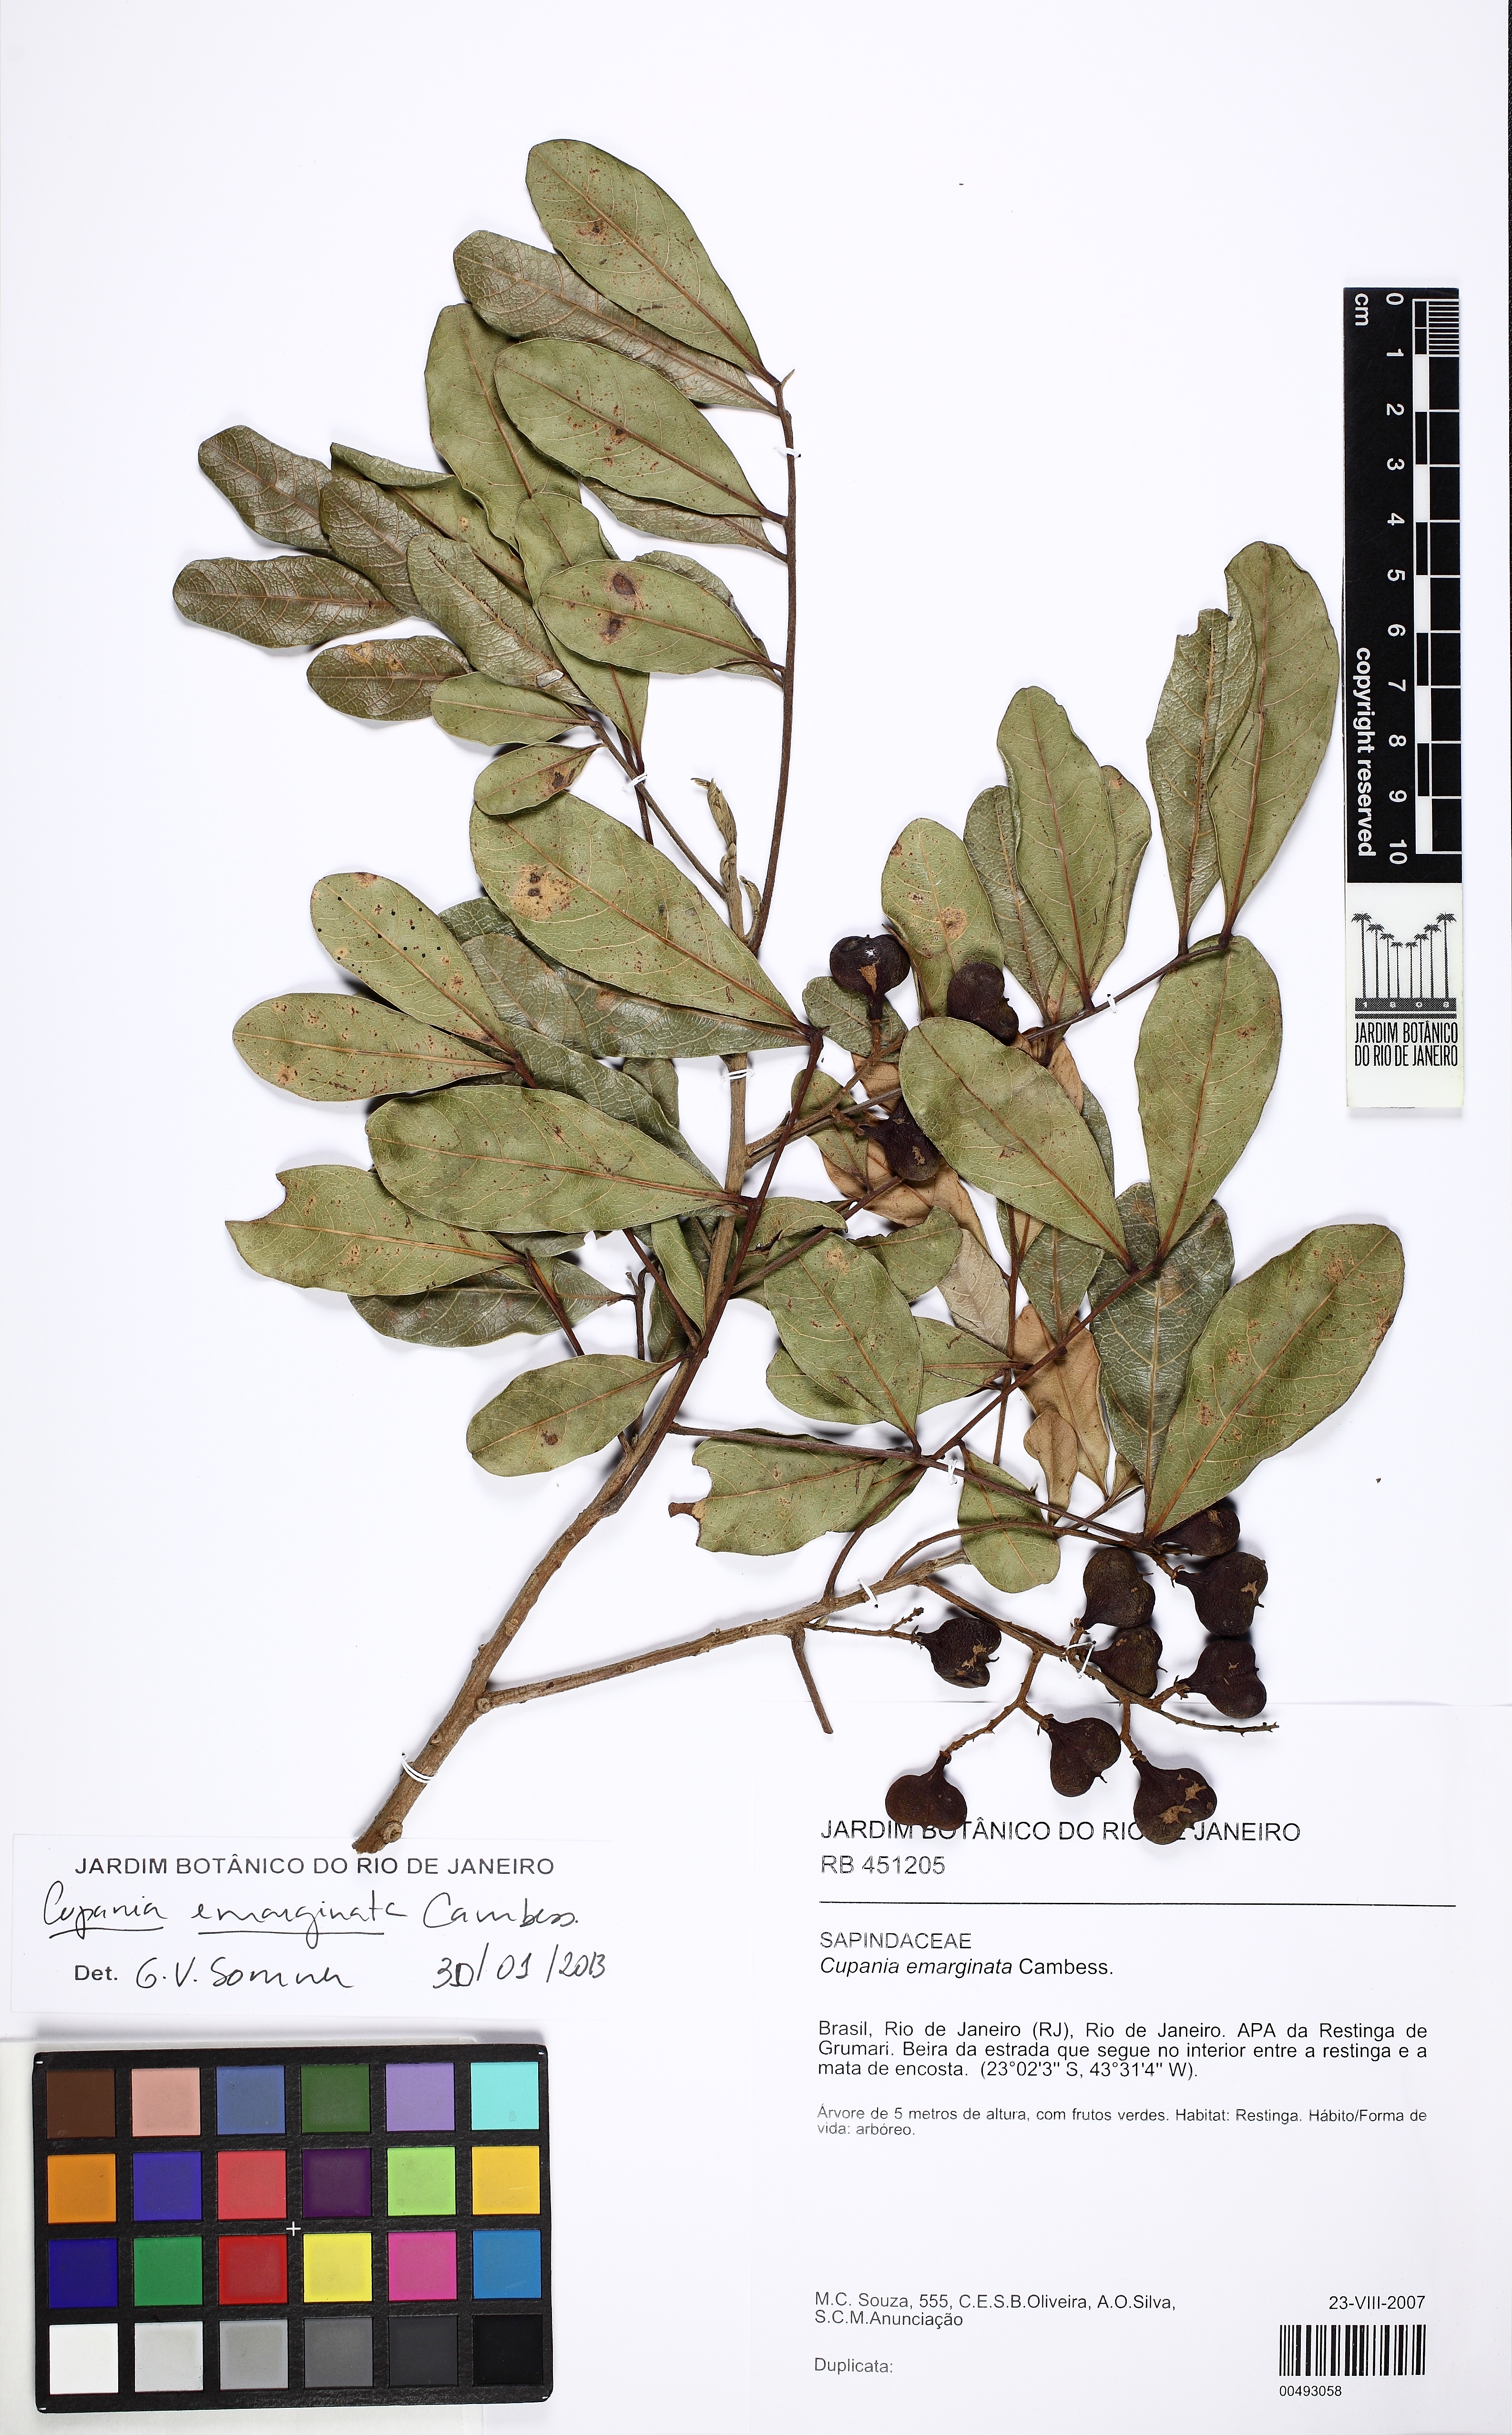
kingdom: Plantae
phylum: Tracheophyta
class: Magnoliopsida
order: Sapindales
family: Sapindaceae
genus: Cupania
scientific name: Cupania emarginata
